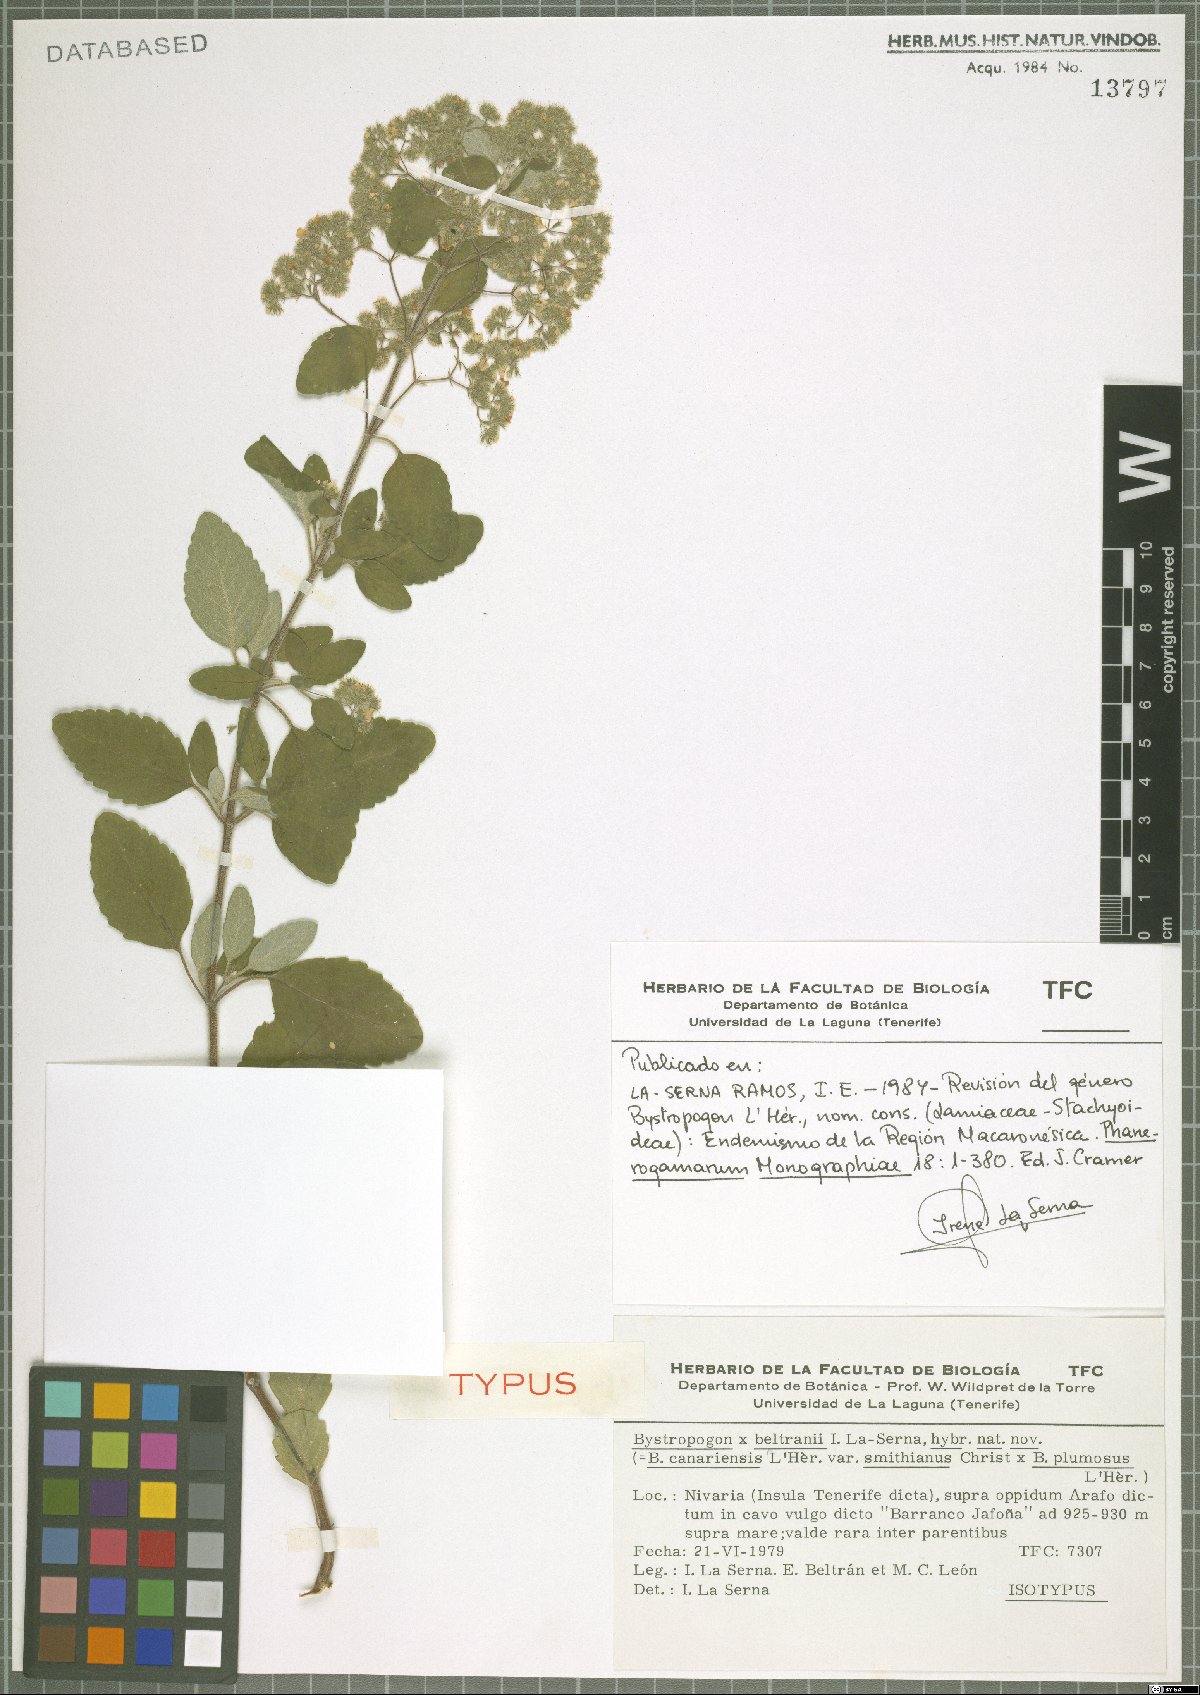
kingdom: Plantae
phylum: Tracheophyta
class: Magnoliopsida
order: Lamiales
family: Lamiaceae
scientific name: Lamiaceae
